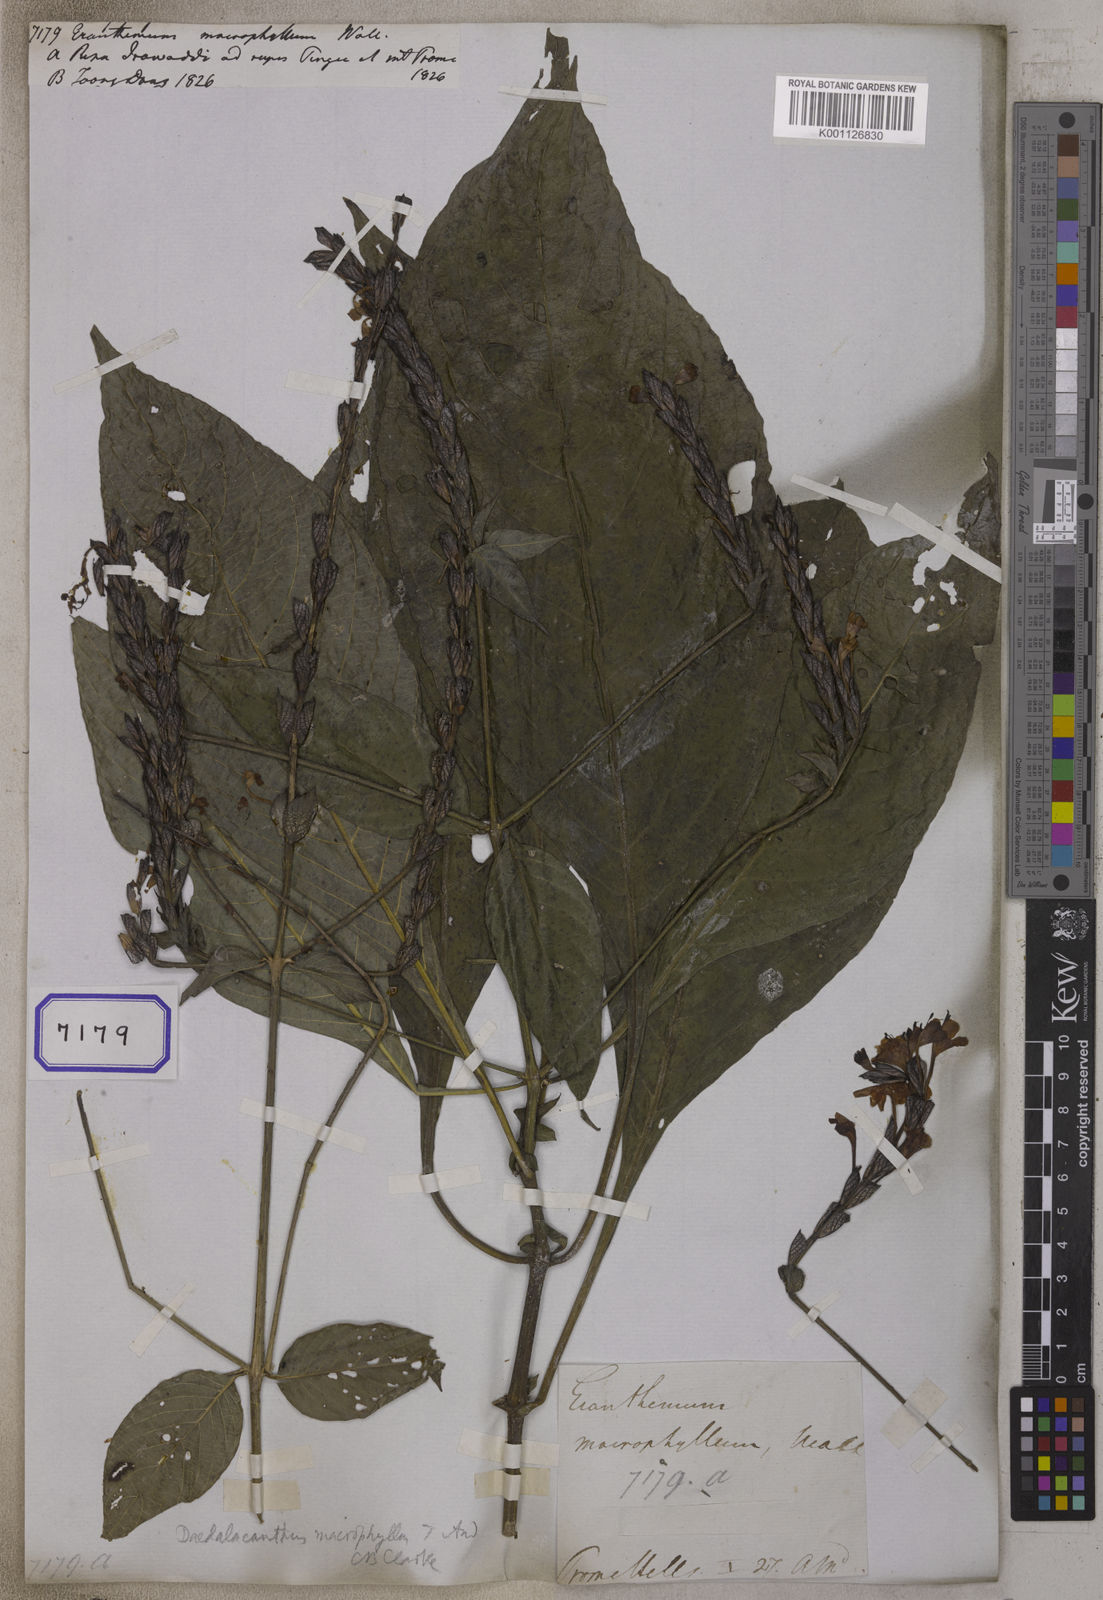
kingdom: Plantae
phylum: Tracheophyta
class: Magnoliopsida
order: Lamiales
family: Acanthaceae
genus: Eranthemum
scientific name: Eranthemum
